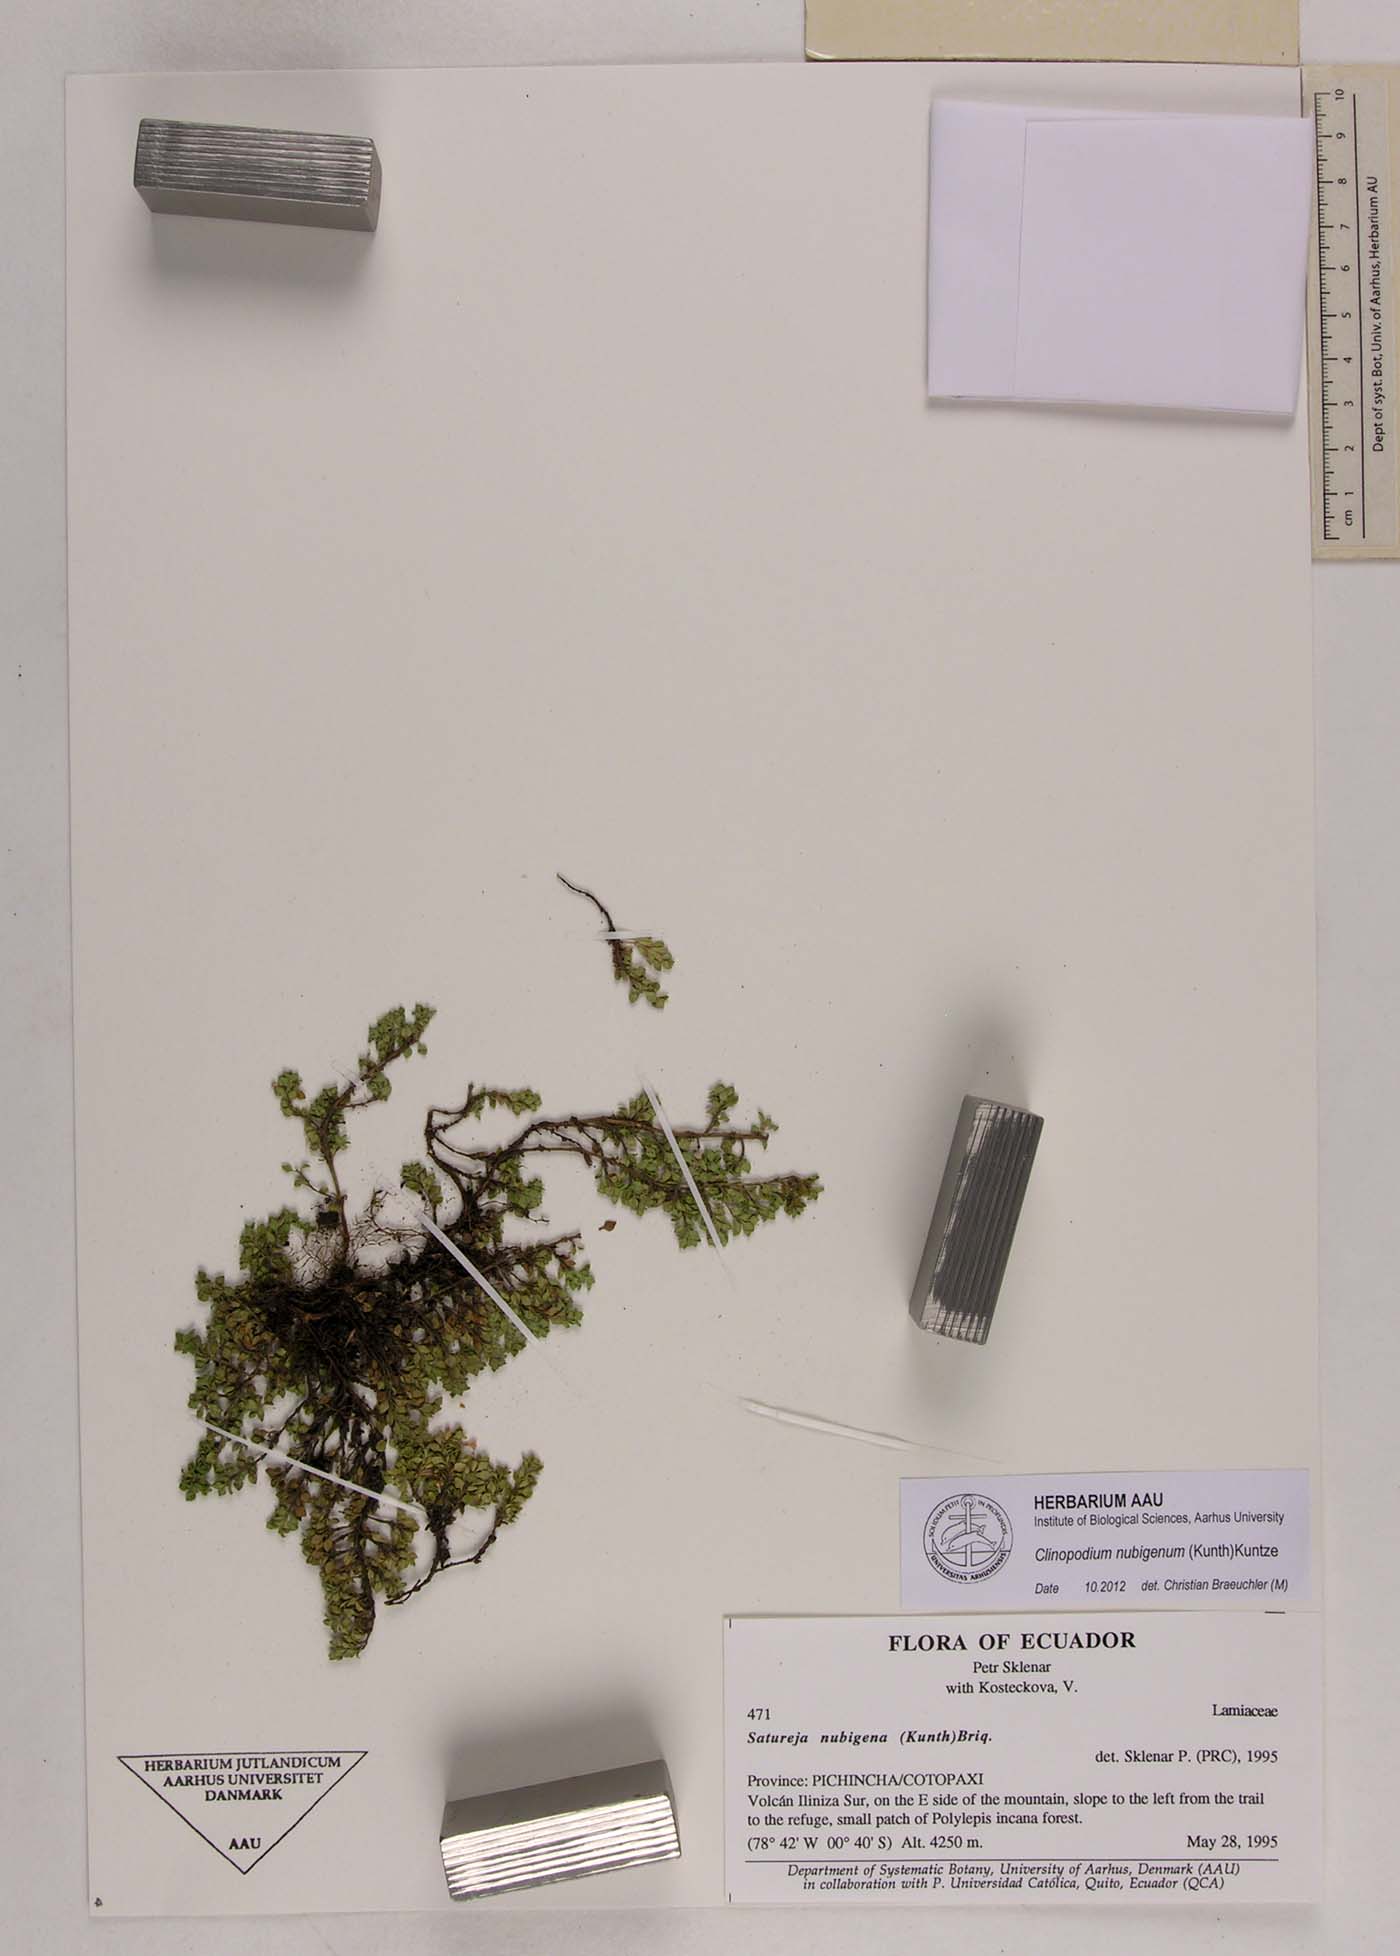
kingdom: Plantae
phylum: Tracheophyta
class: Magnoliopsida
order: Lamiales
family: Lamiaceae
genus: Clinopodium
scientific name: Clinopodium nubigenum
